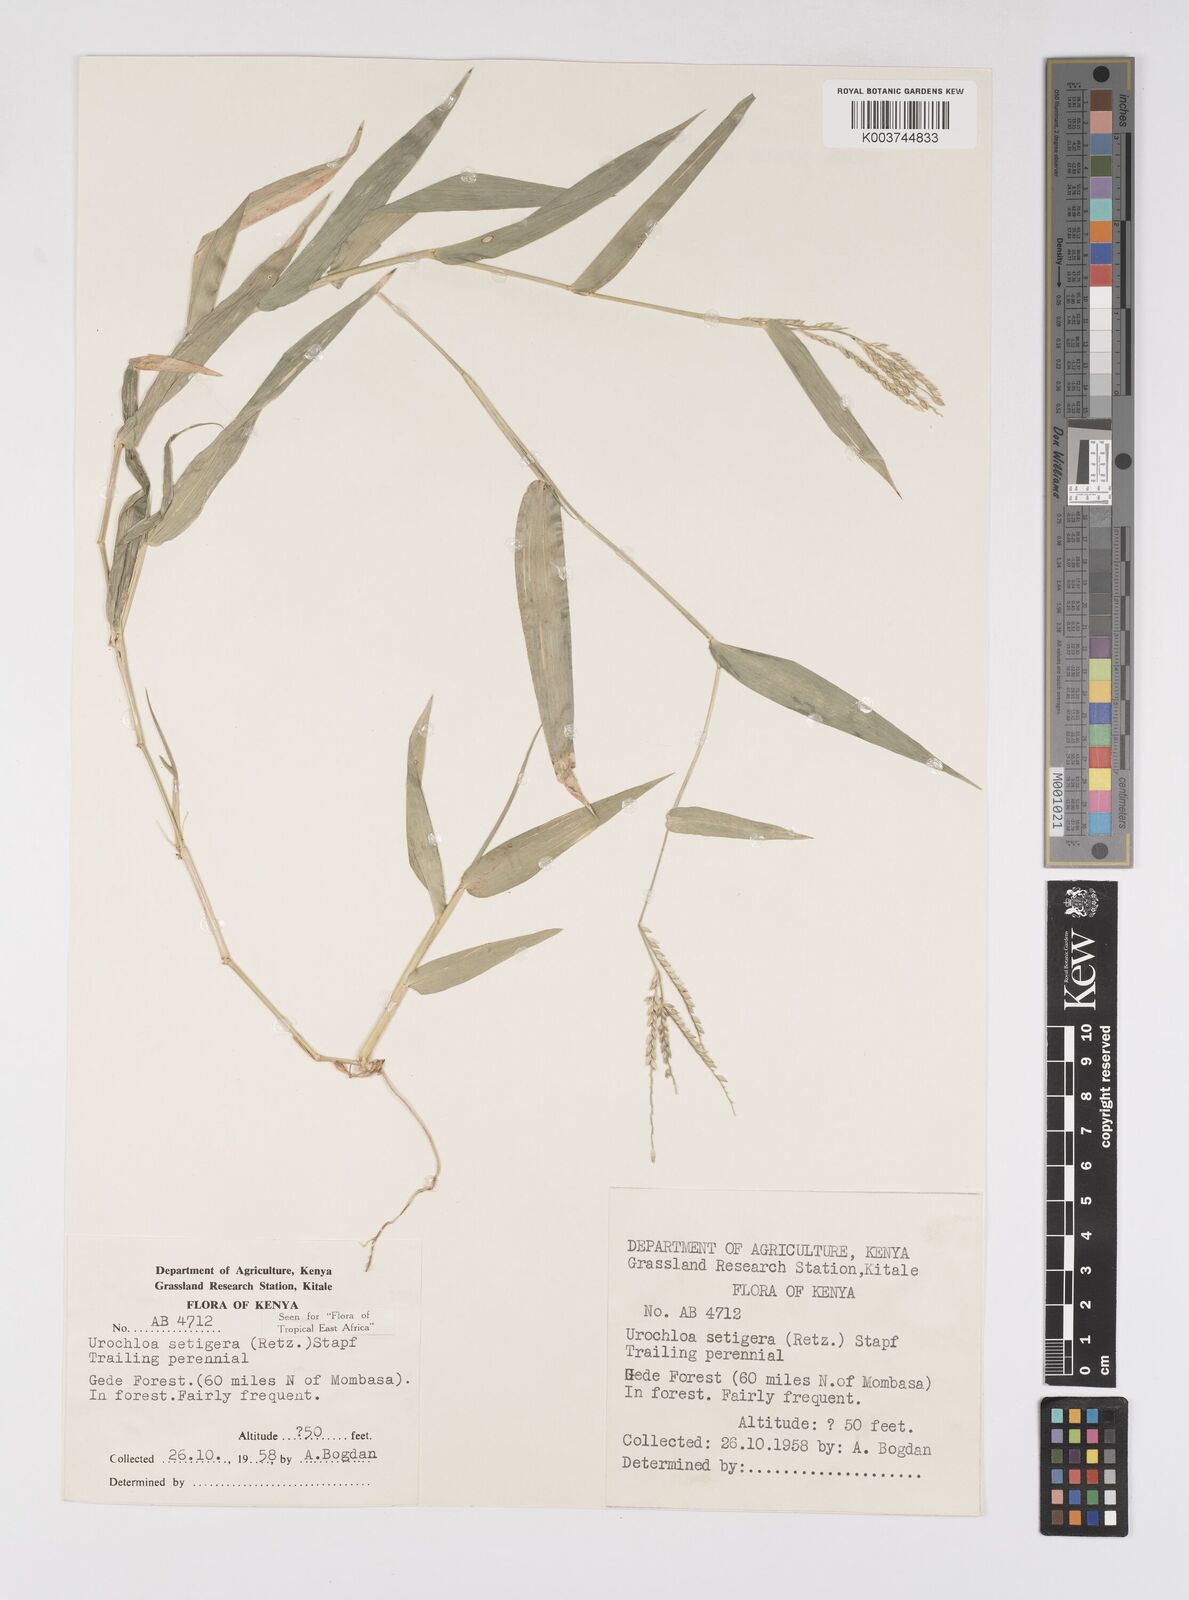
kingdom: Plantae
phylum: Tracheophyta
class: Liliopsida
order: Poales
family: Poaceae
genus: Urochloa
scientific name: Urochloa trichopodioides
